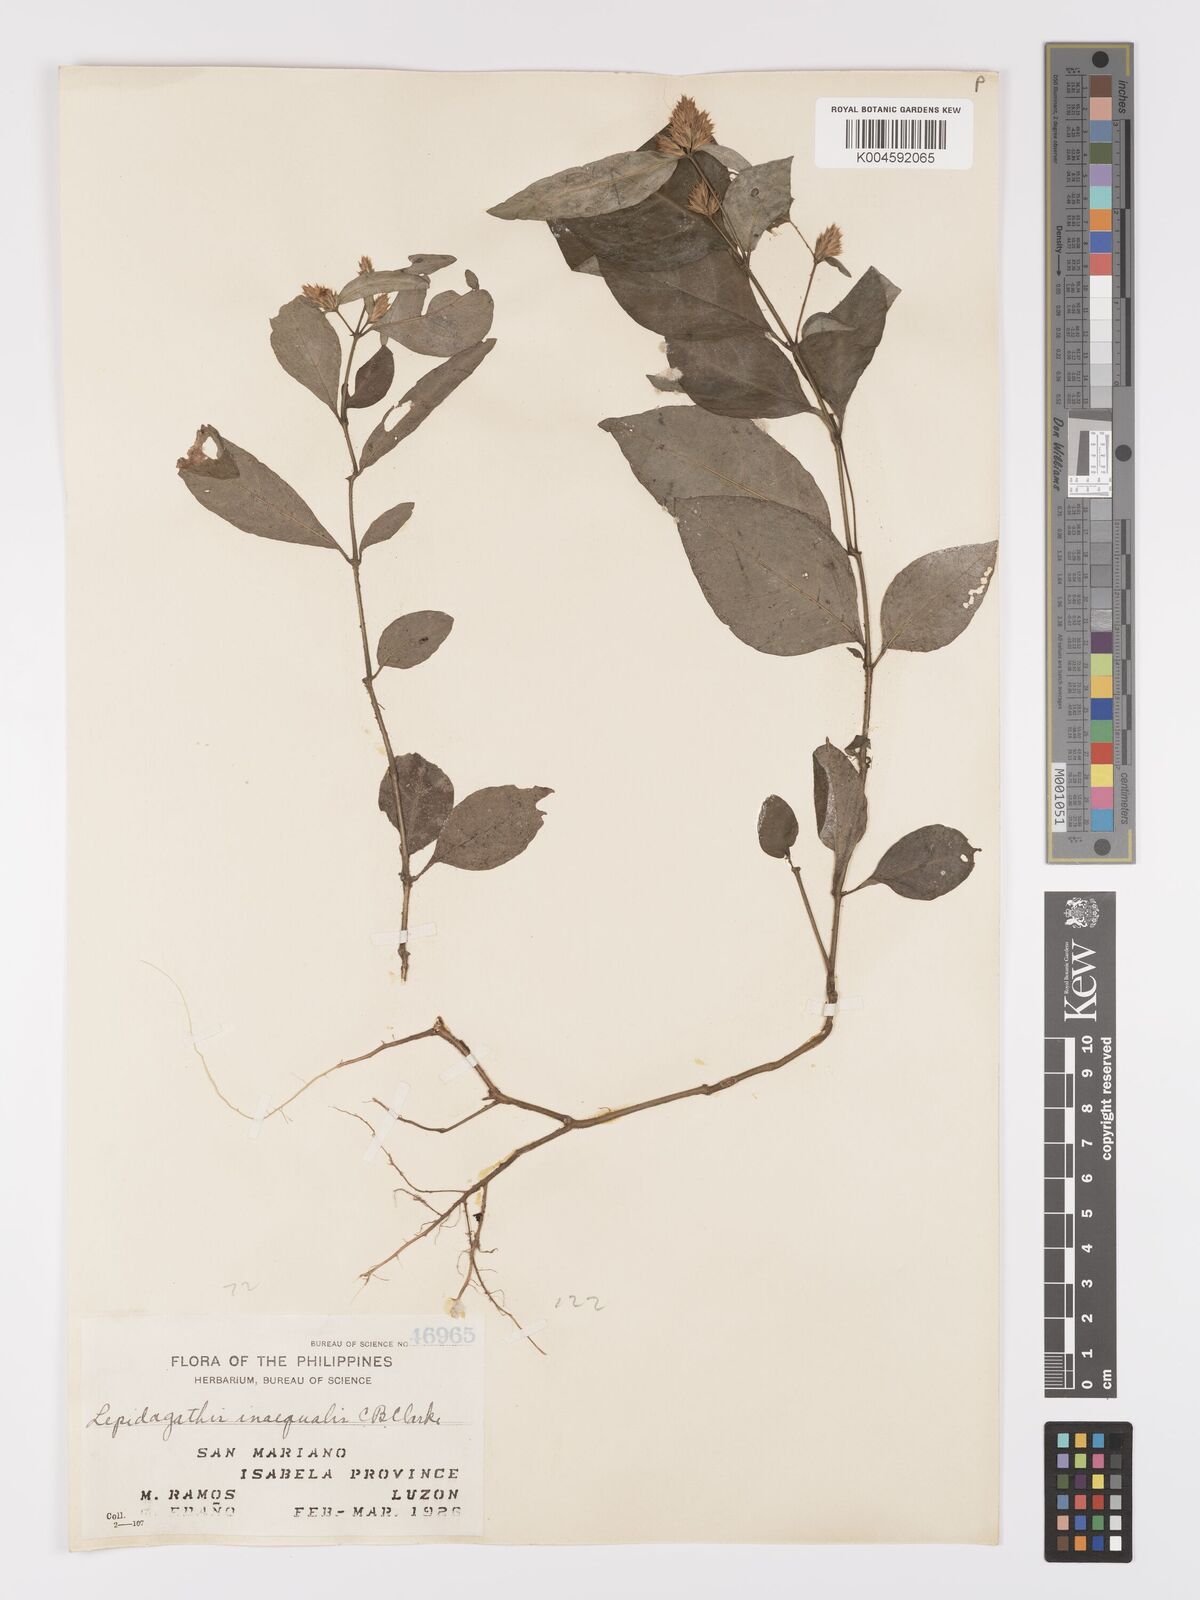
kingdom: Plantae
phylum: Tracheophyta
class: Magnoliopsida
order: Lamiales
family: Acanthaceae
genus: Lepidagathis
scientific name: Lepidagathis inaequalis
